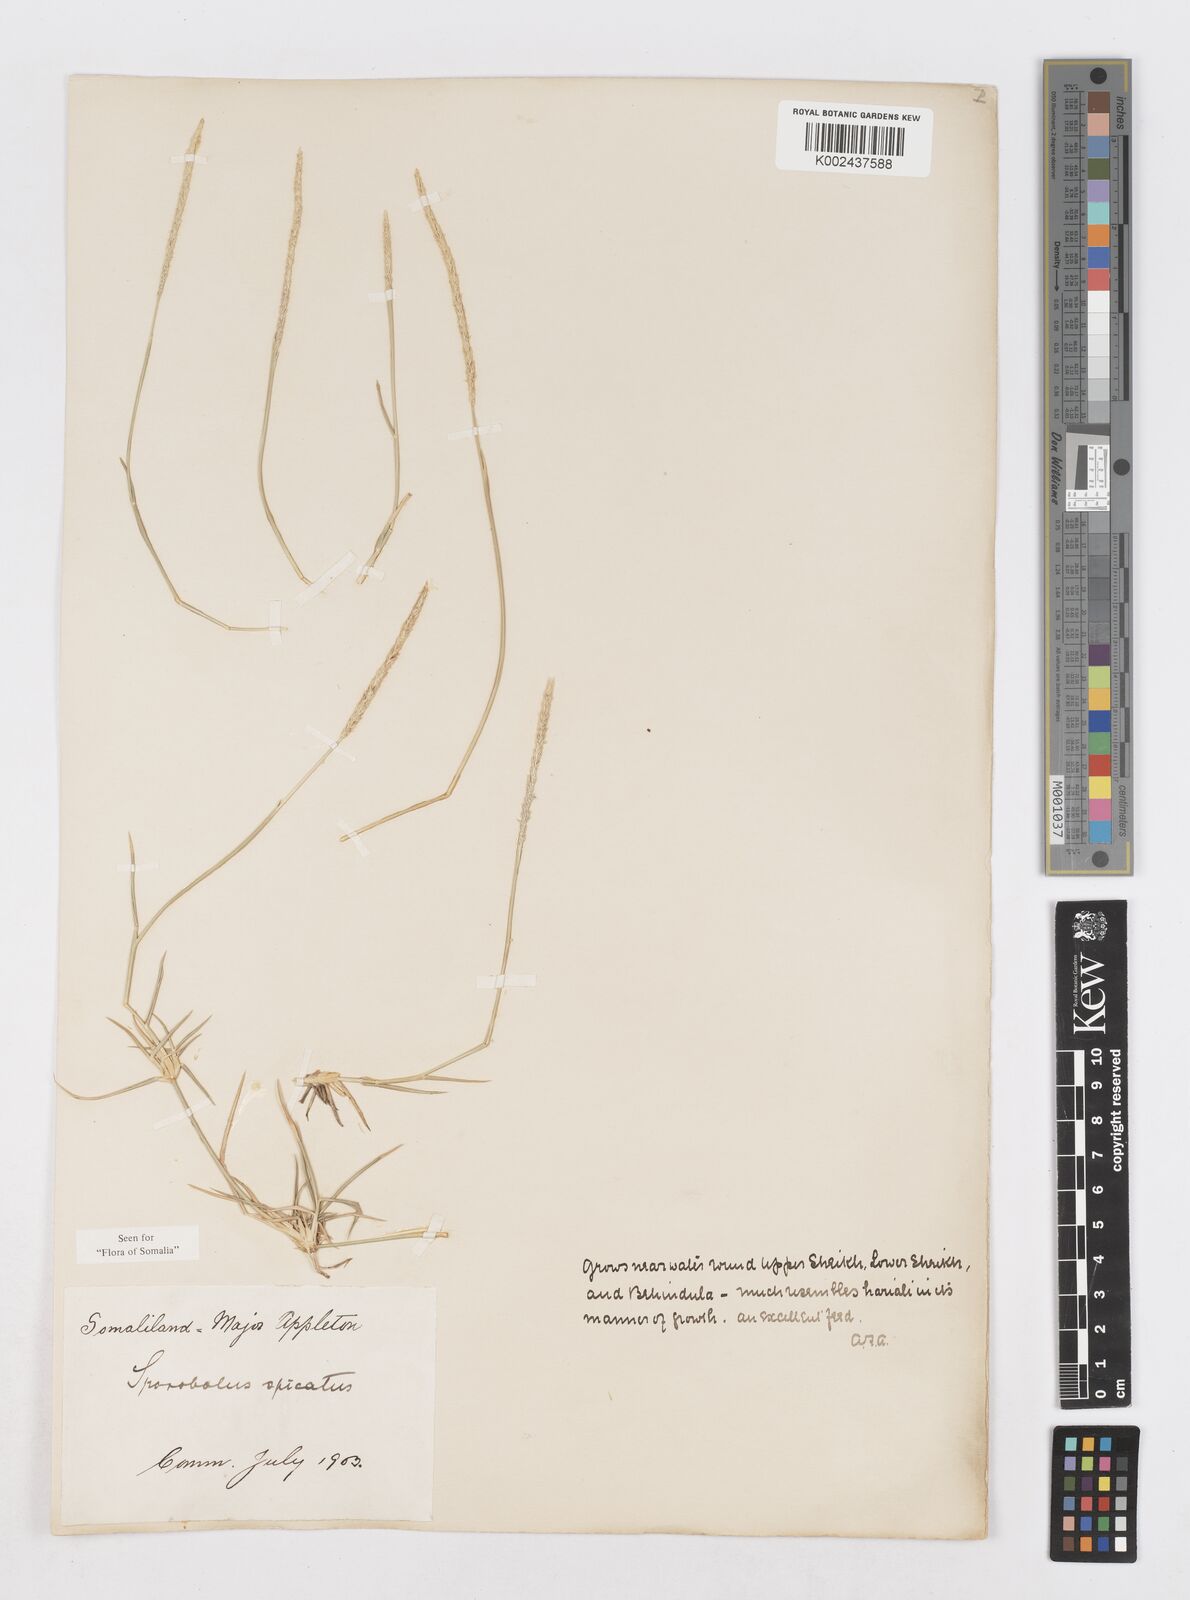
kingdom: Plantae
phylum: Tracheophyta
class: Liliopsida
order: Poales
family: Poaceae
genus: Sporobolus
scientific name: Sporobolus spicatus
